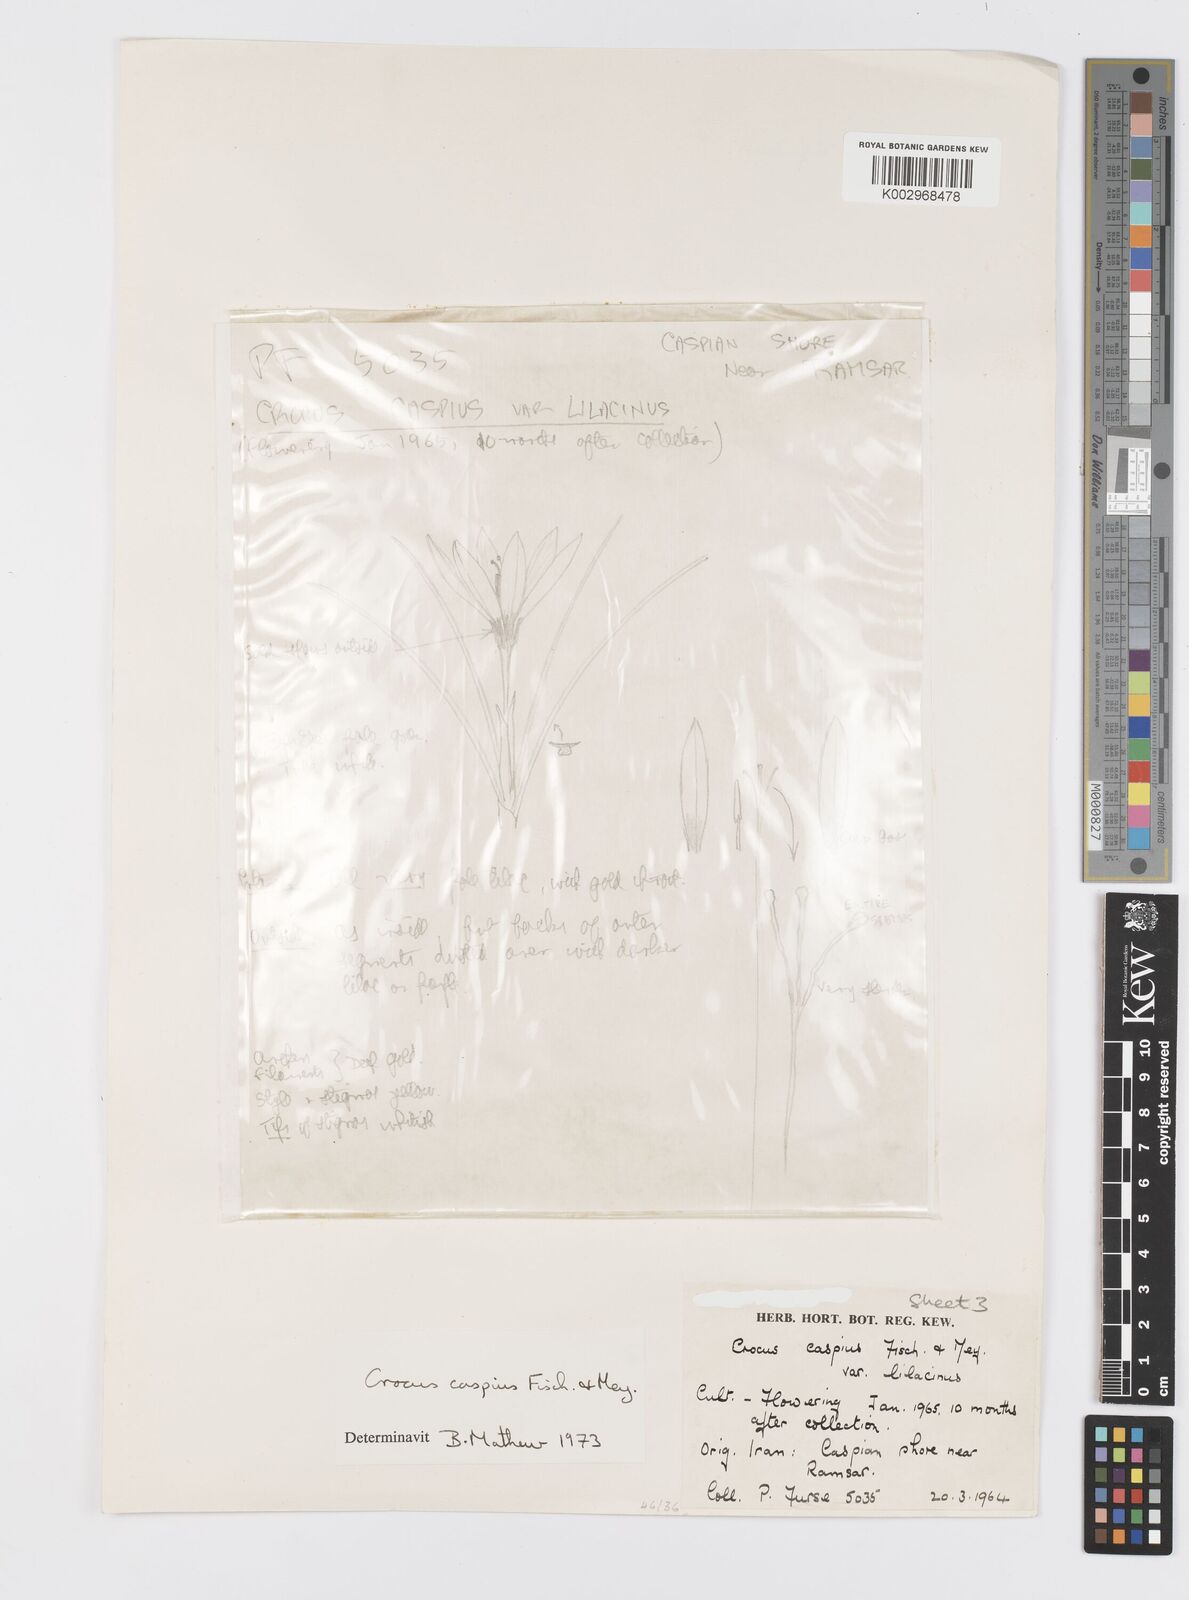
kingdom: Plantae
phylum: Tracheophyta
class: Liliopsida
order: Asparagales
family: Iridaceae
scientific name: Iridaceae
